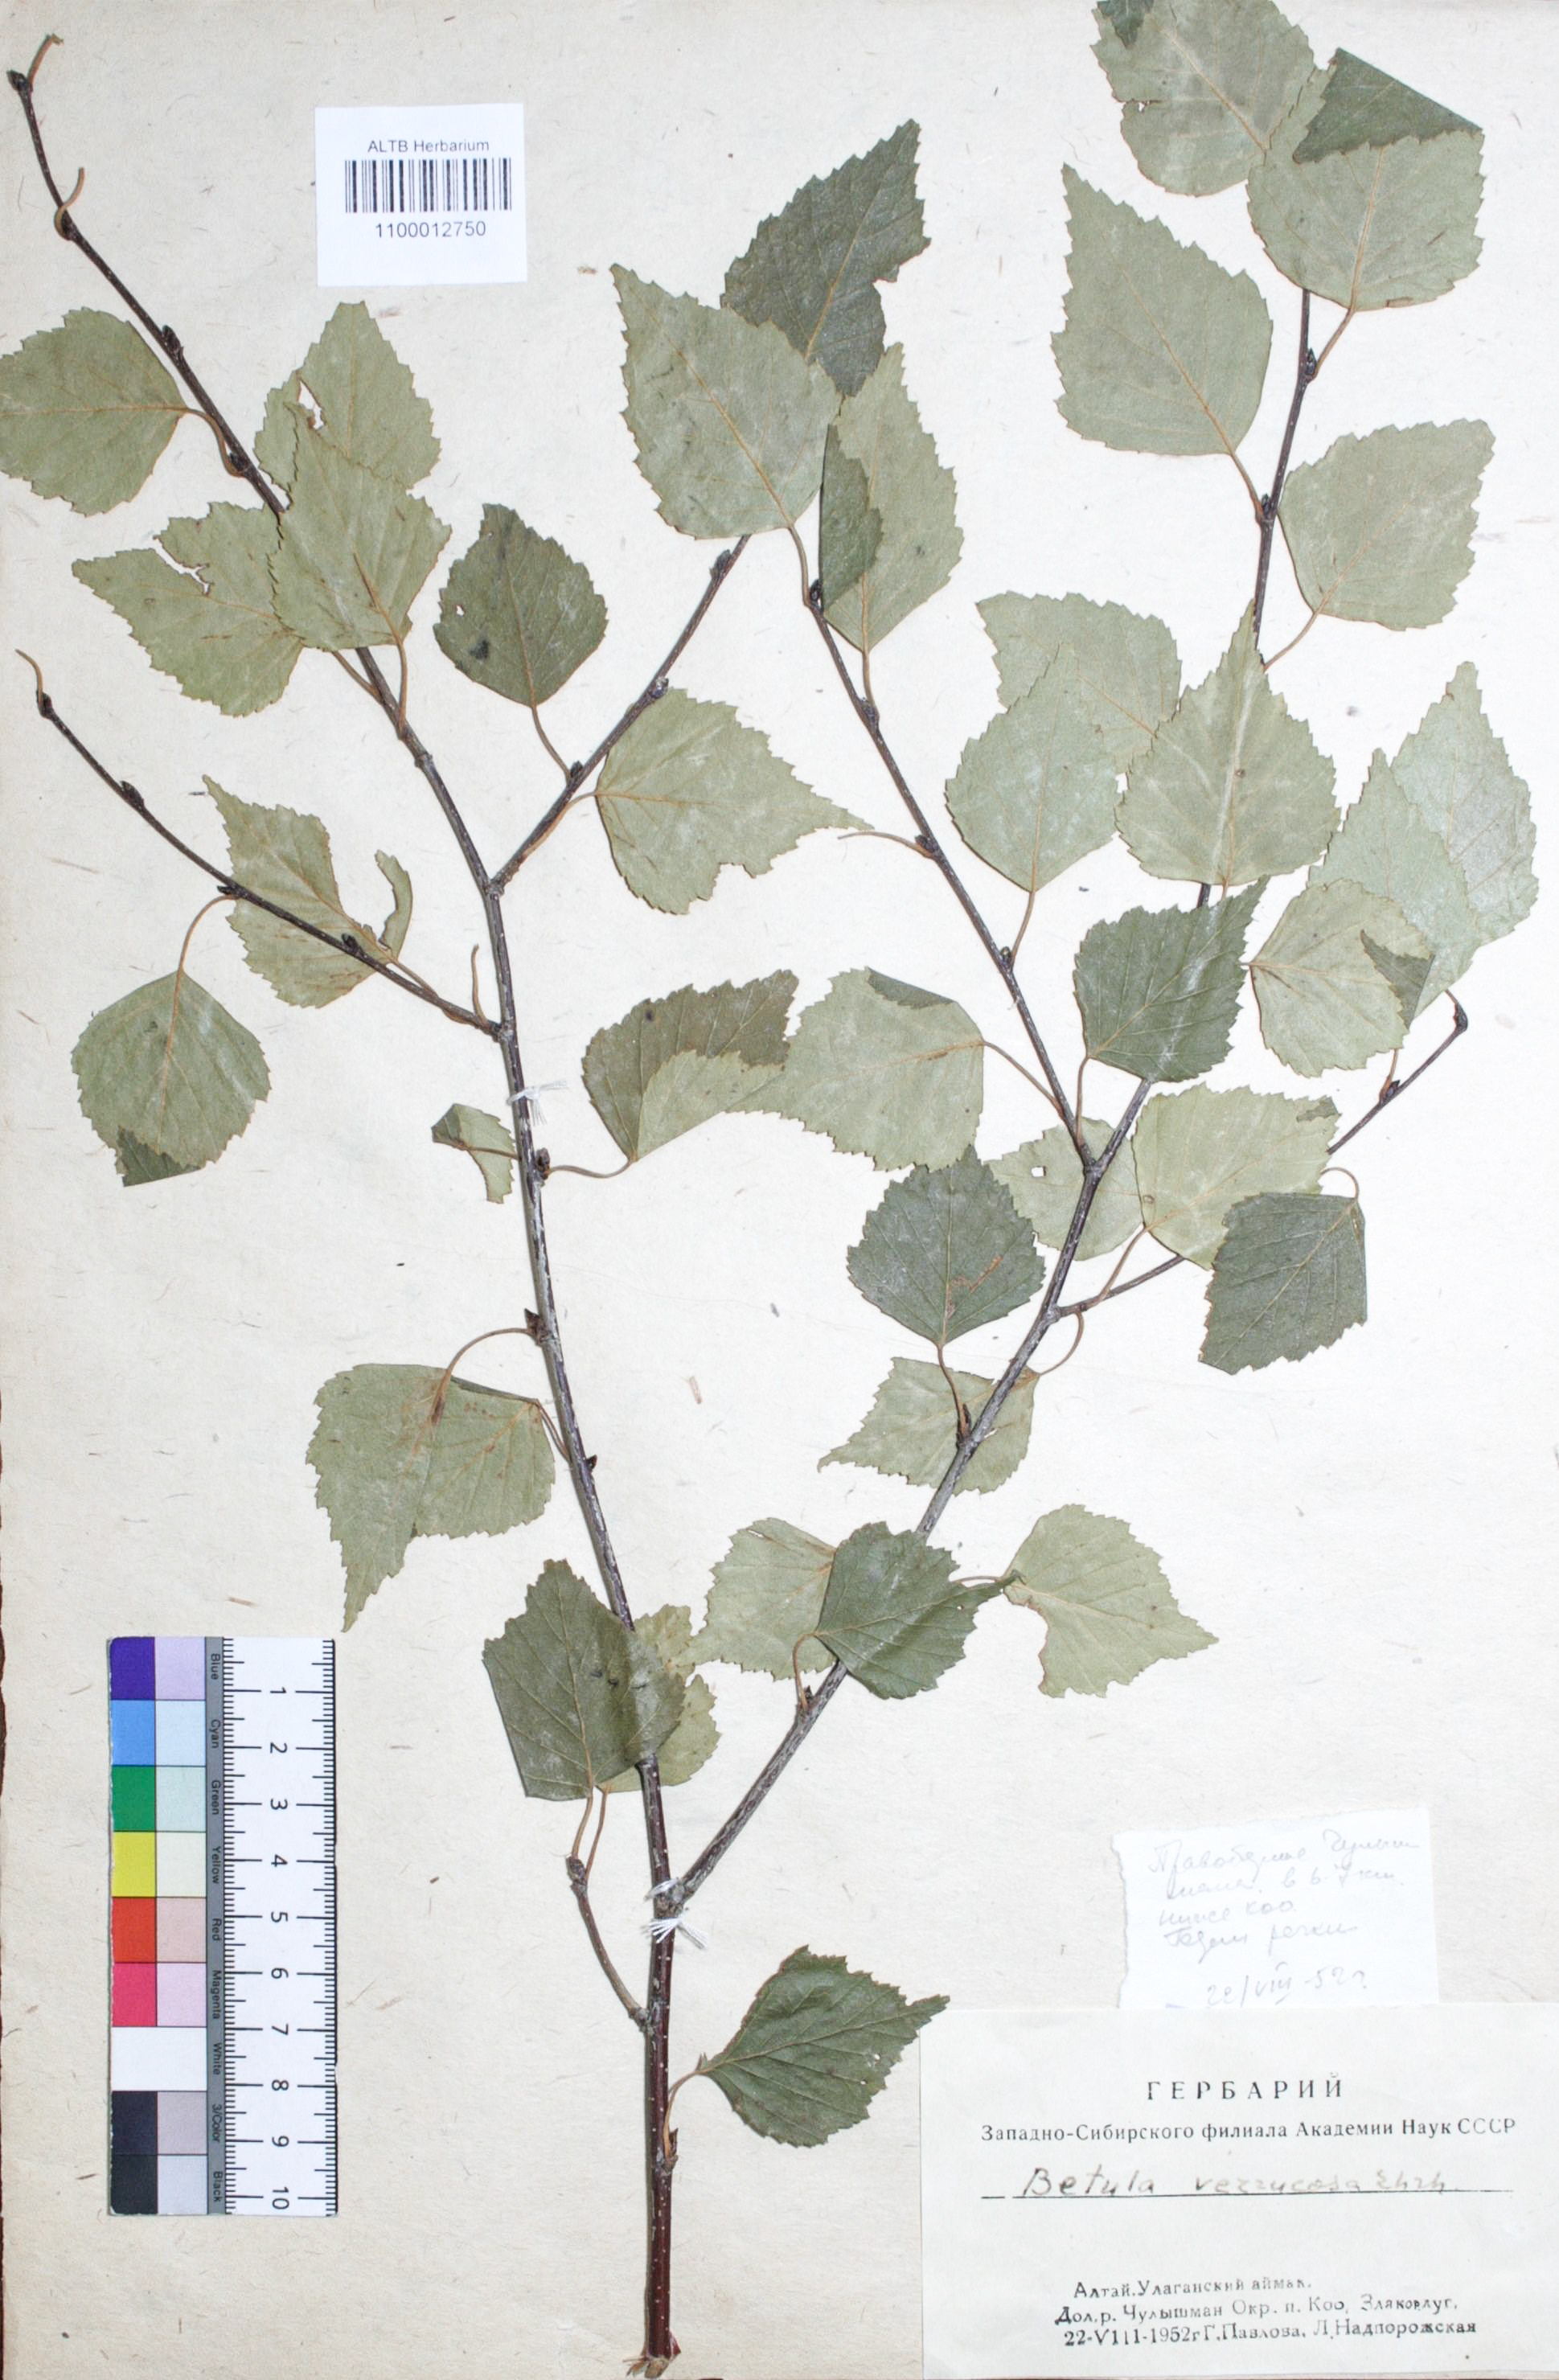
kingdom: Plantae
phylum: Tracheophyta
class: Magnoliopsida
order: Fagales
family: Betulaceae
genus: Betula
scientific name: Betula pendula
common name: Silver birch
